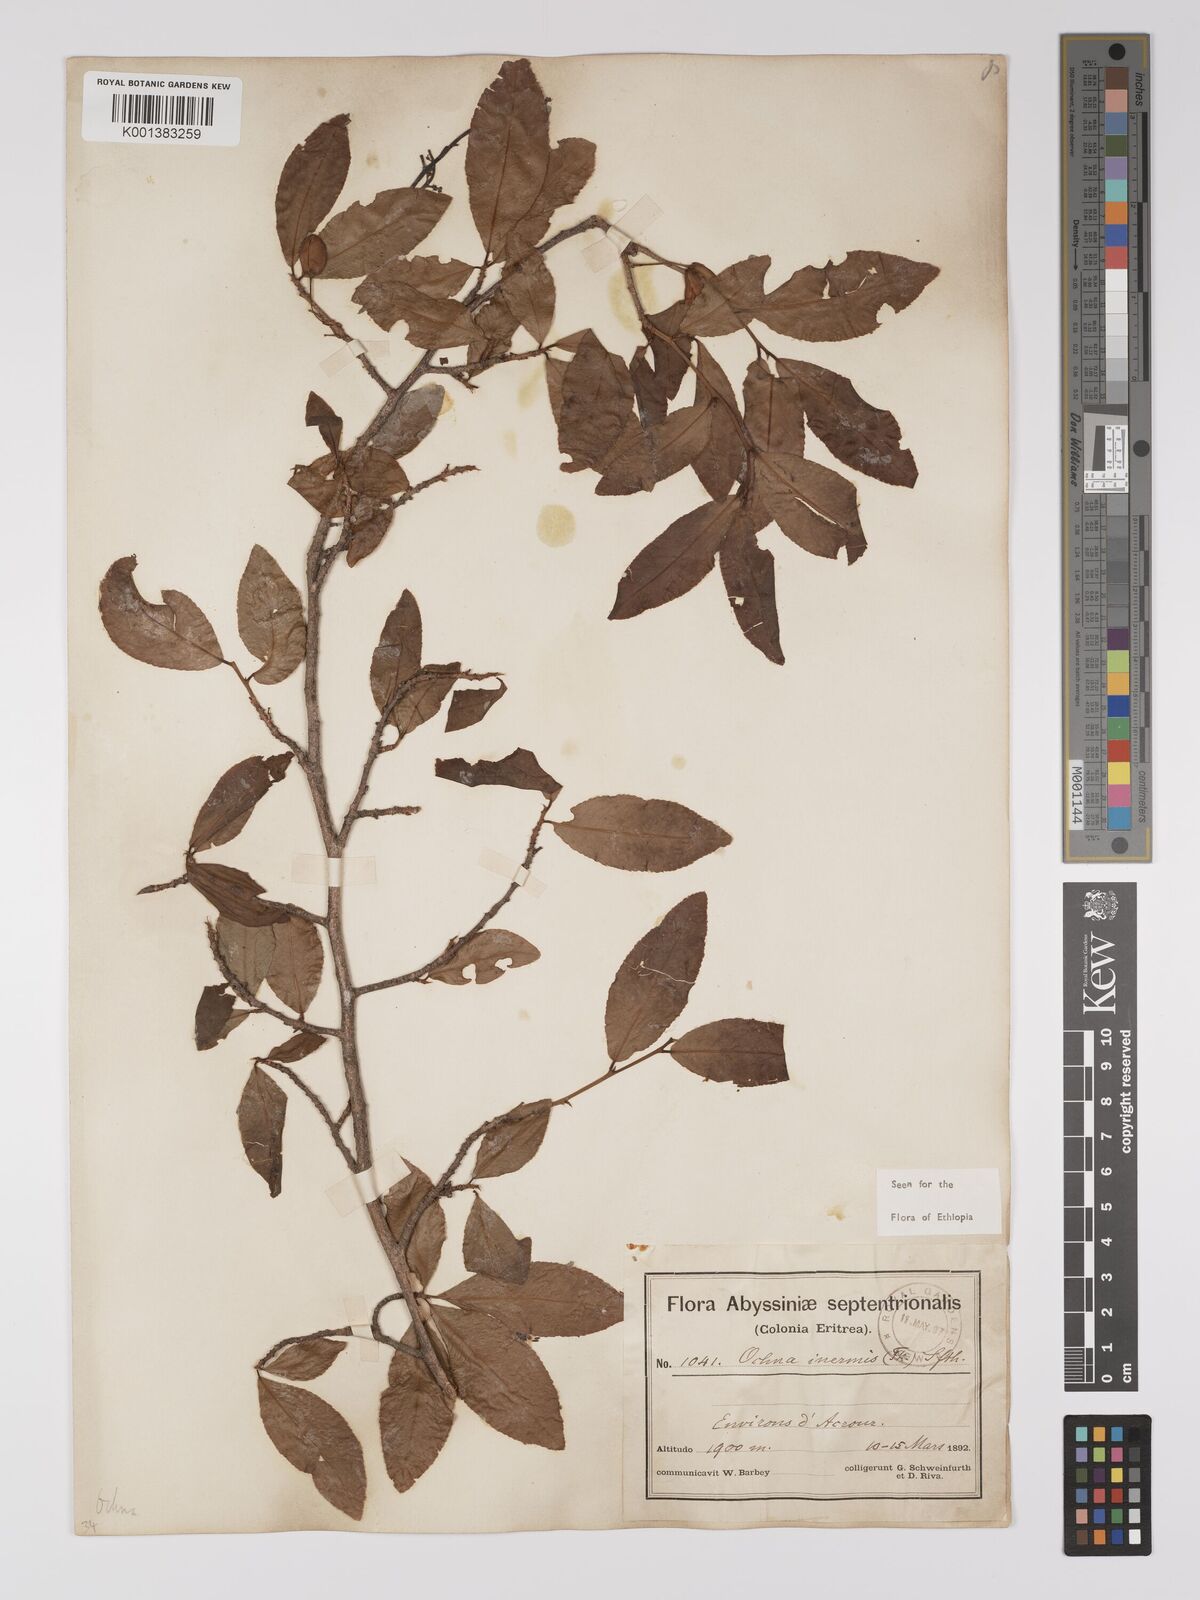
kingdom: Plantae
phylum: Tracheophyta
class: Magnoliopsida
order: Malpighiales
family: Ochnaceae
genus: Ochna
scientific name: Ochna inermis
